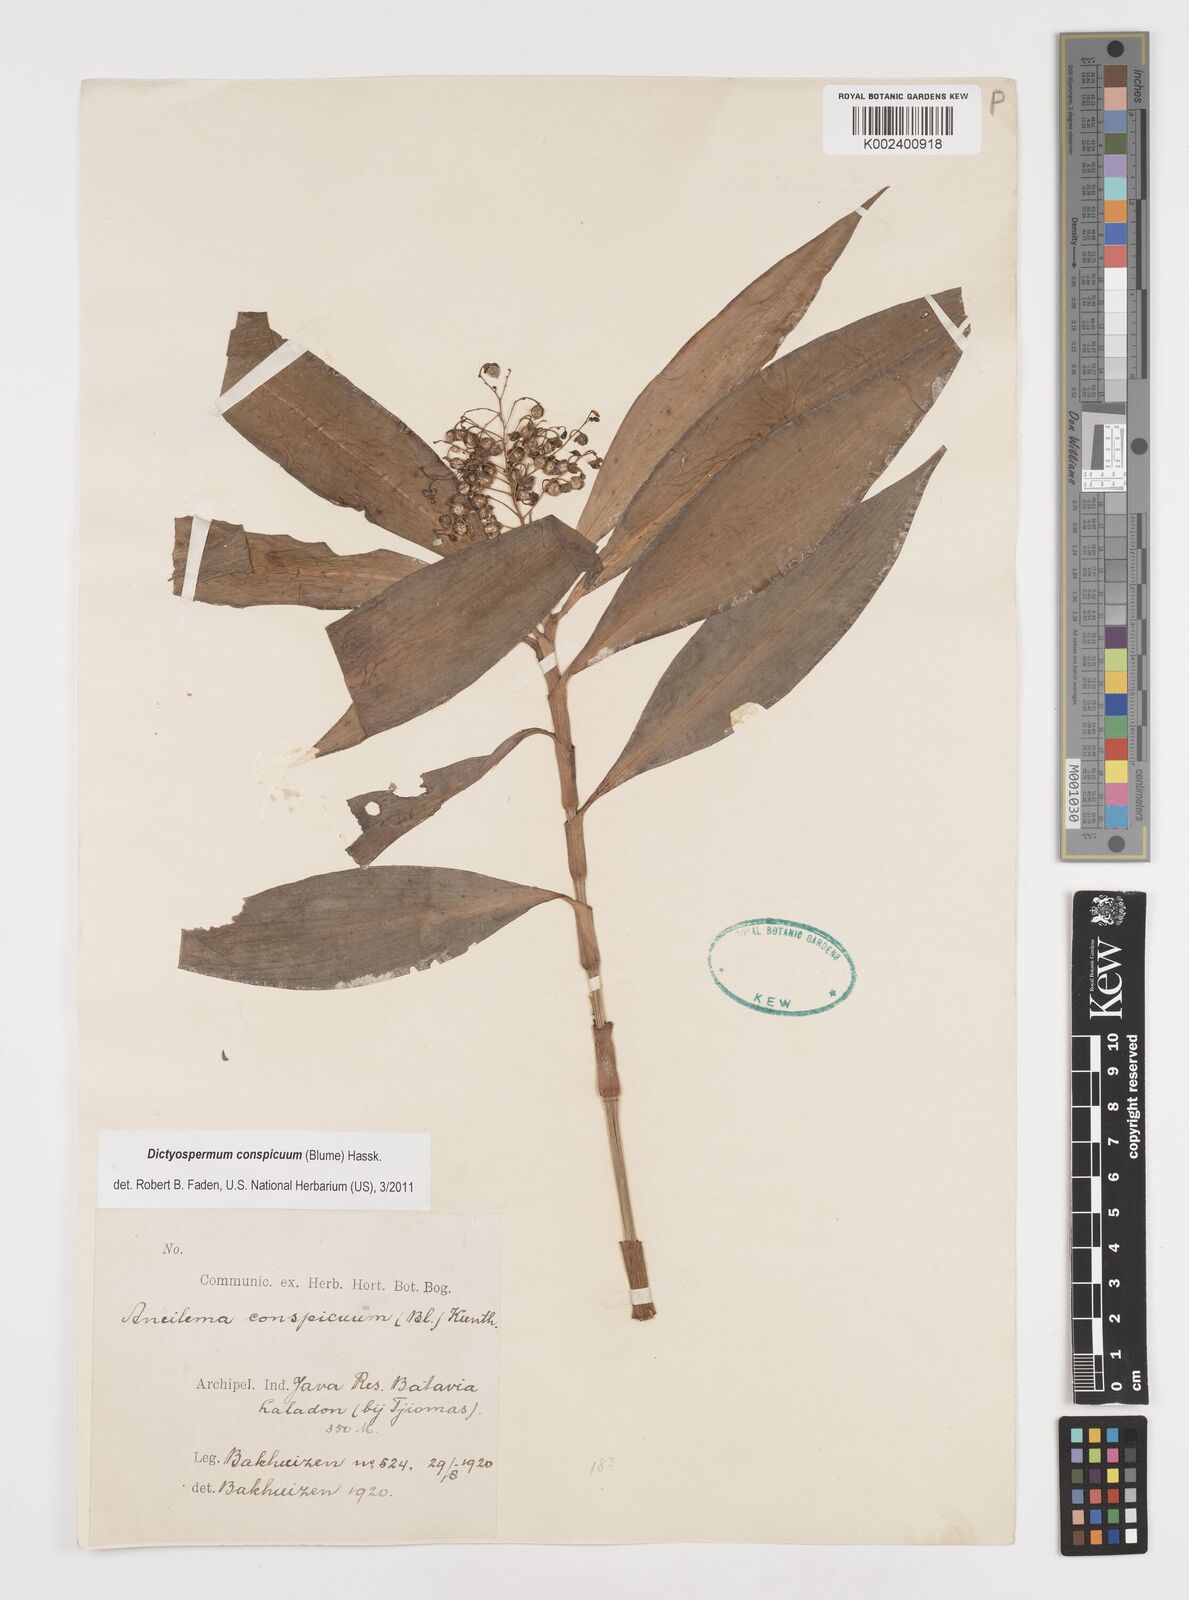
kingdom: Plantae
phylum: Tracheophyta
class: Liliopsida
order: Commelinales
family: Commelinaceae
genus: Dictyospermum
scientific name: Dictyospermum conspicuum
